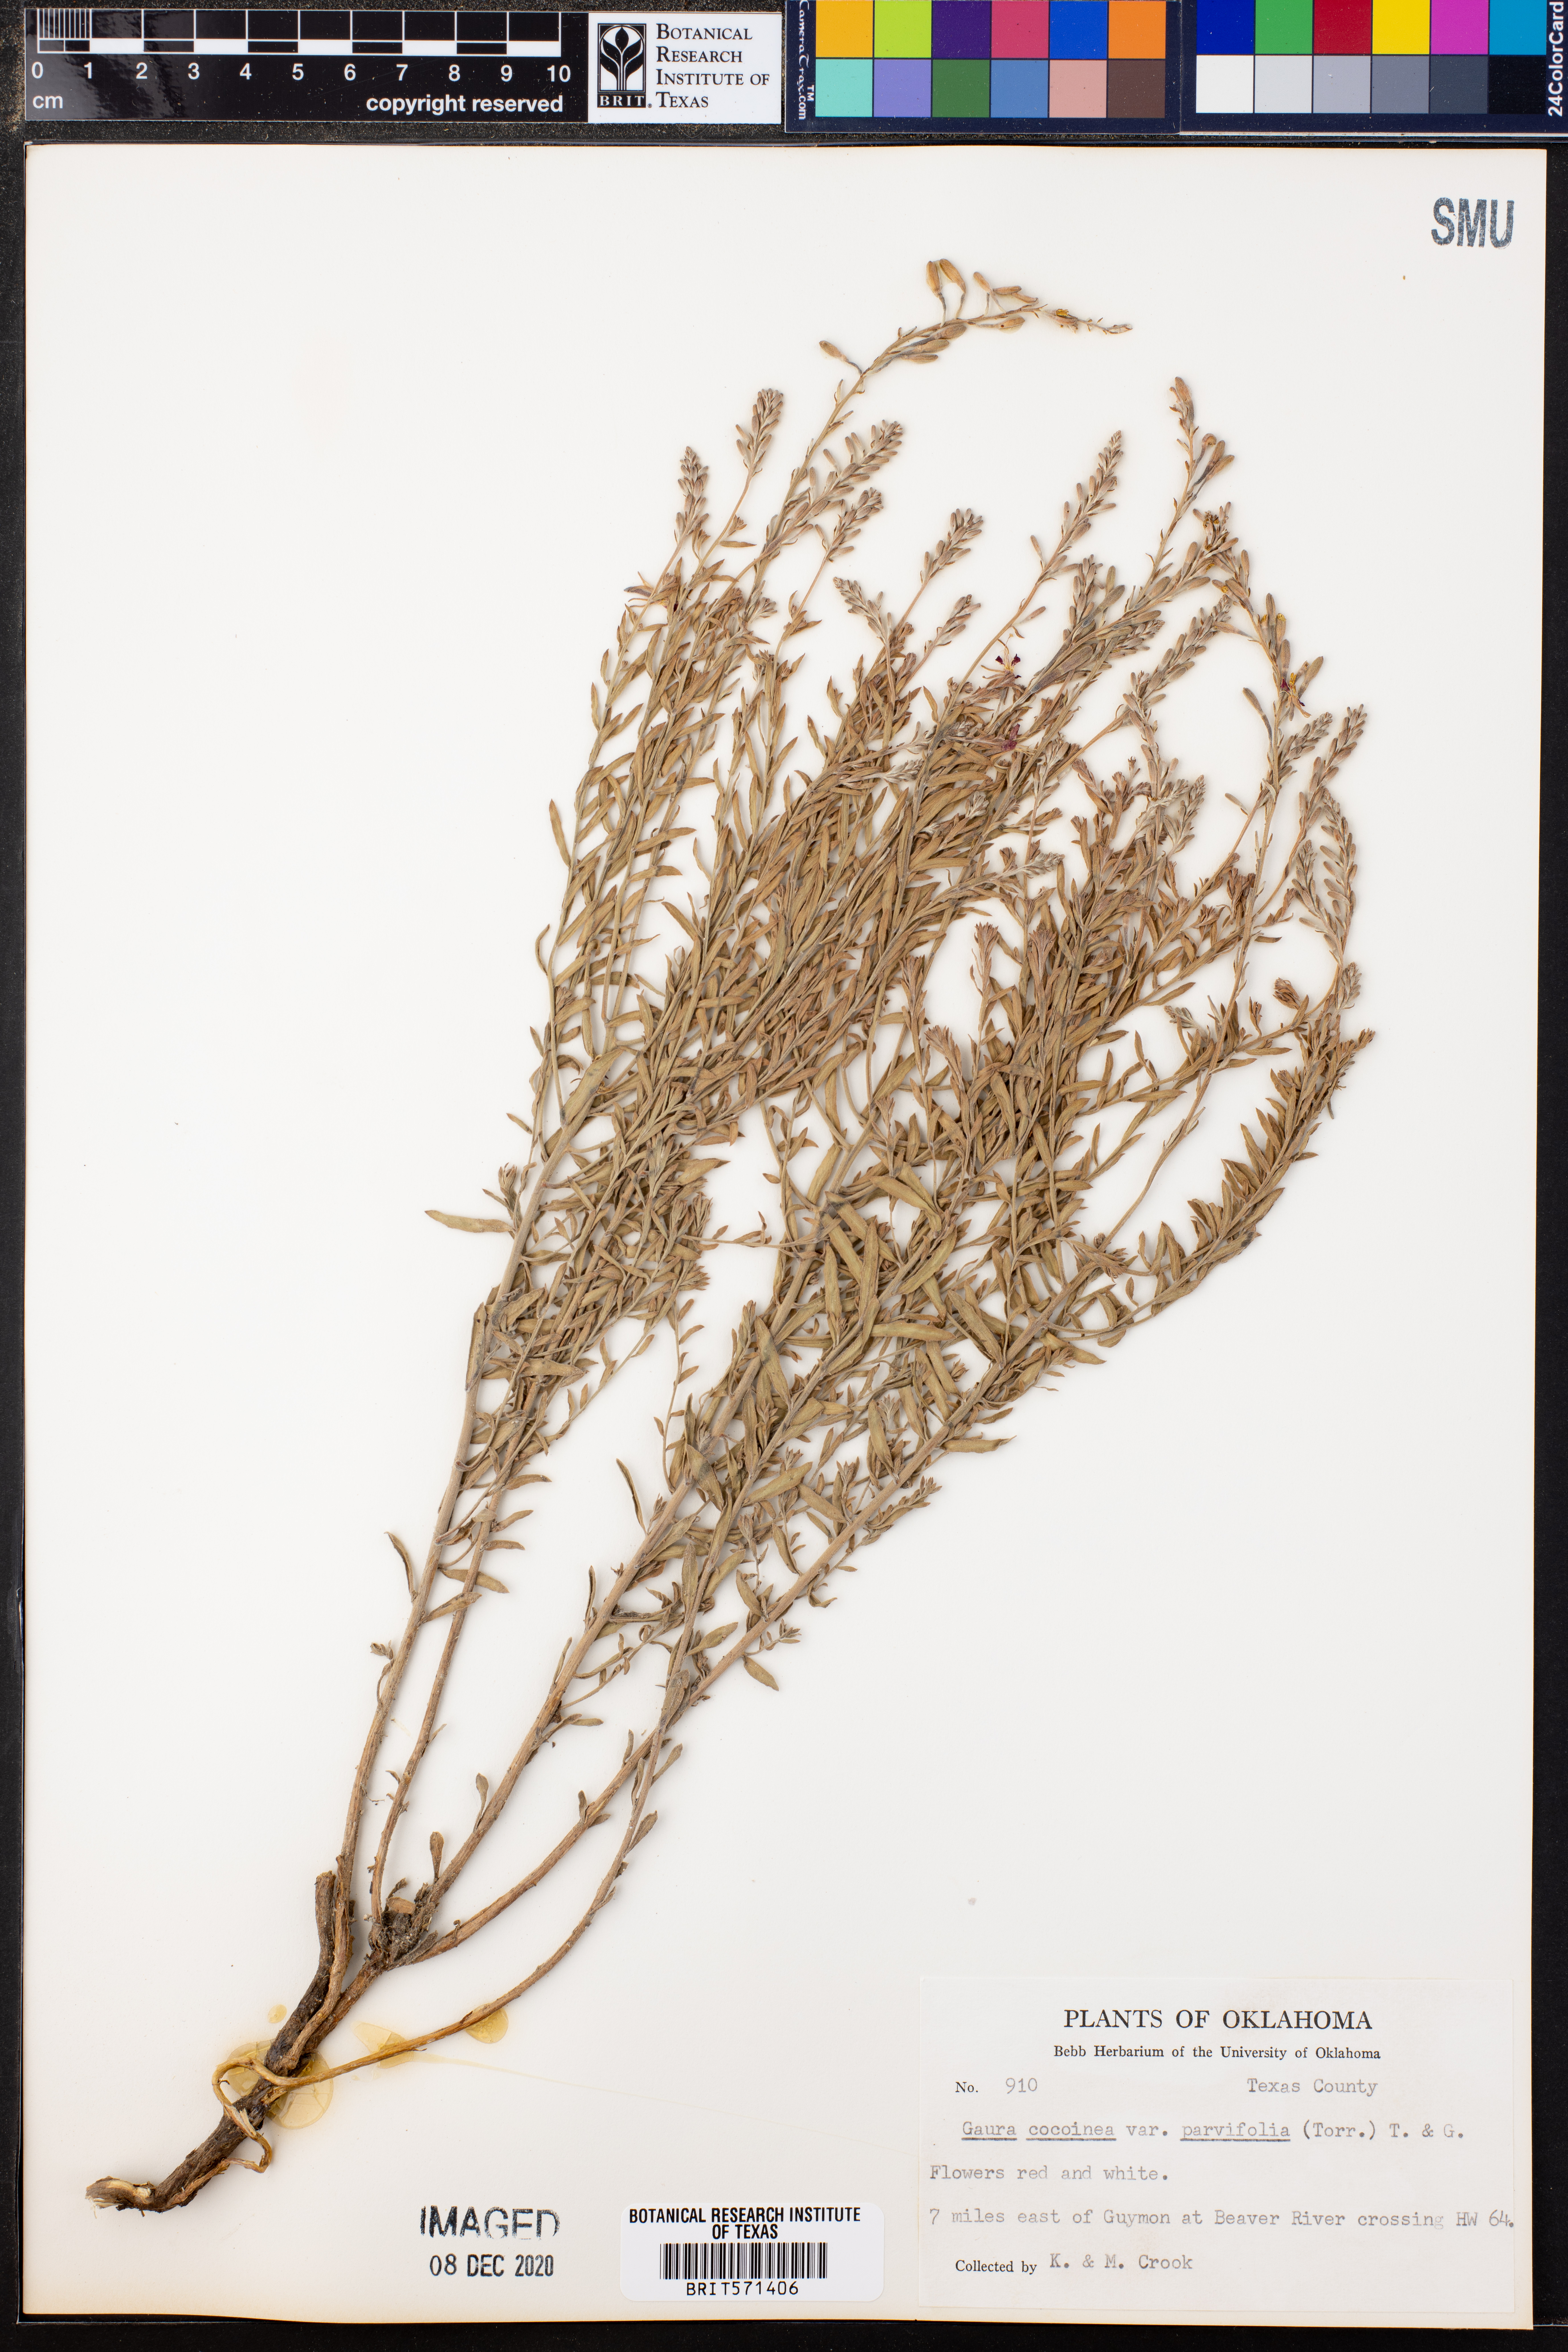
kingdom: Plantae
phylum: Tracheophyta
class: Magnoliopsida
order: Myrtales
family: Onagraceae
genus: Oenothera
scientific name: Oenothera suffrutescens
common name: Scarlet beeblossom
